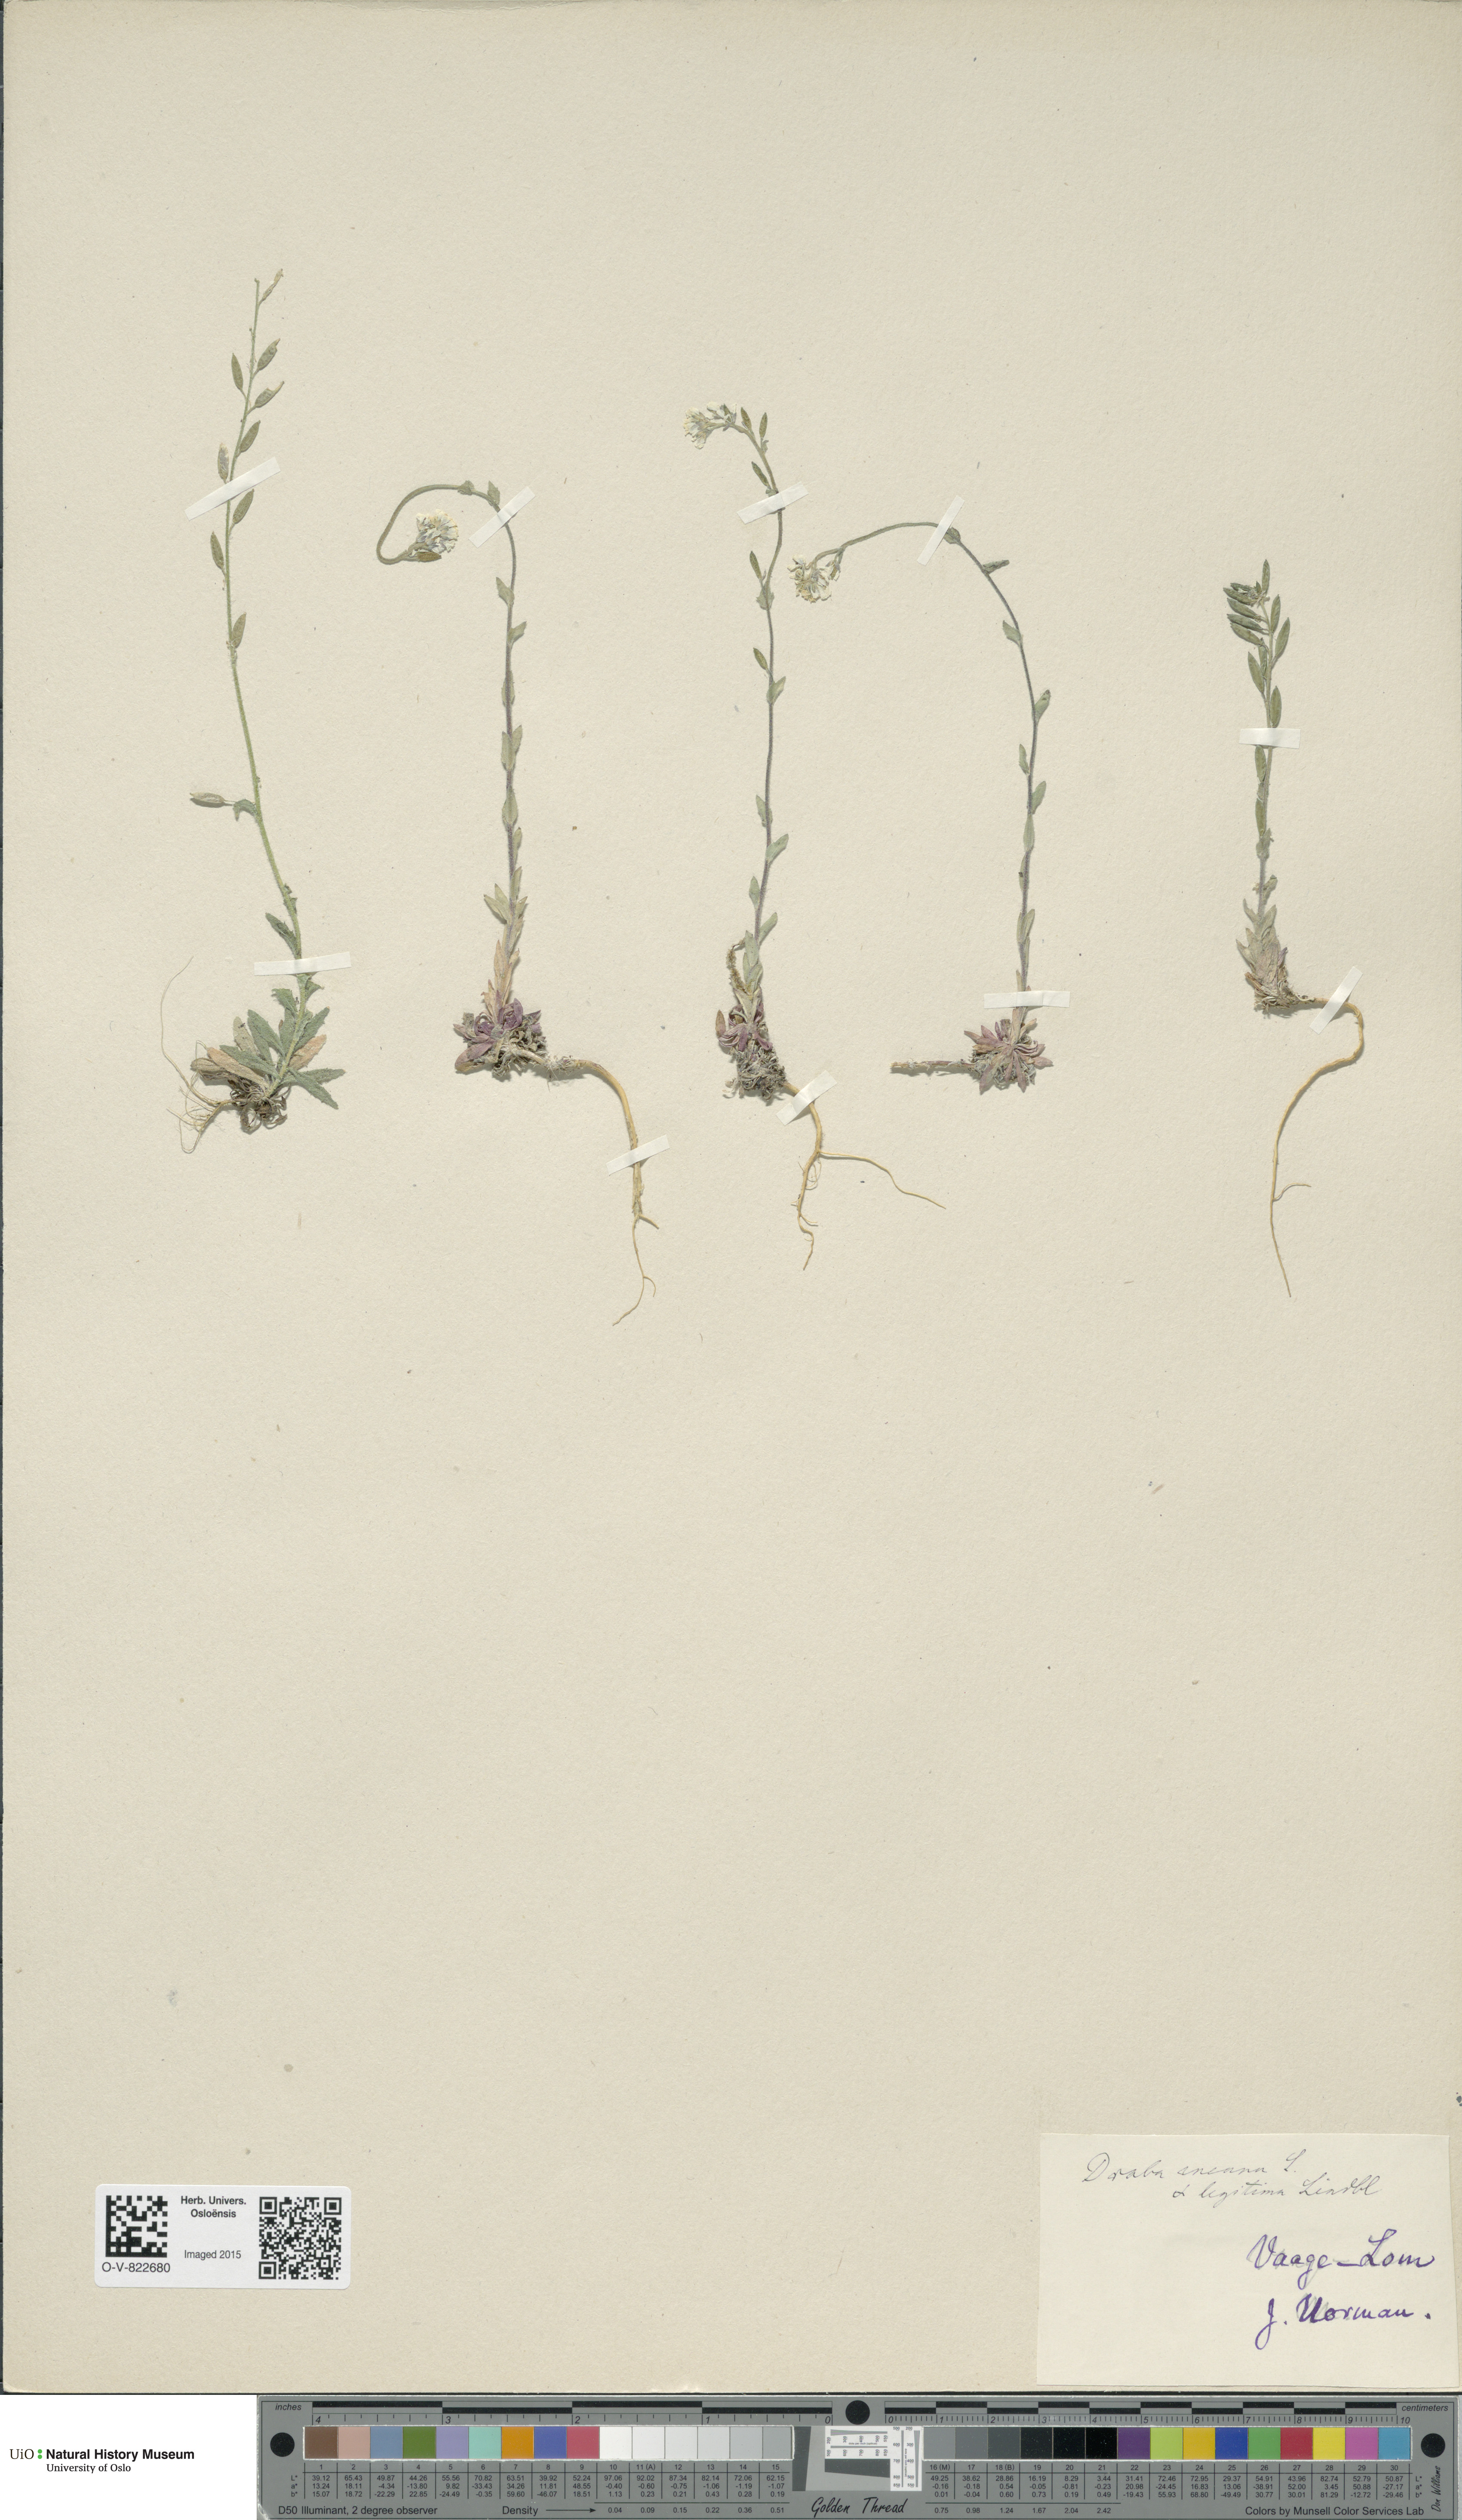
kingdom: Plantae
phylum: Tracheophyta
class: Magnoliopsida
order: Brassicales
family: Brassicaceae
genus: Draba
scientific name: Draba incana
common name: Hoary whitlow-grass
